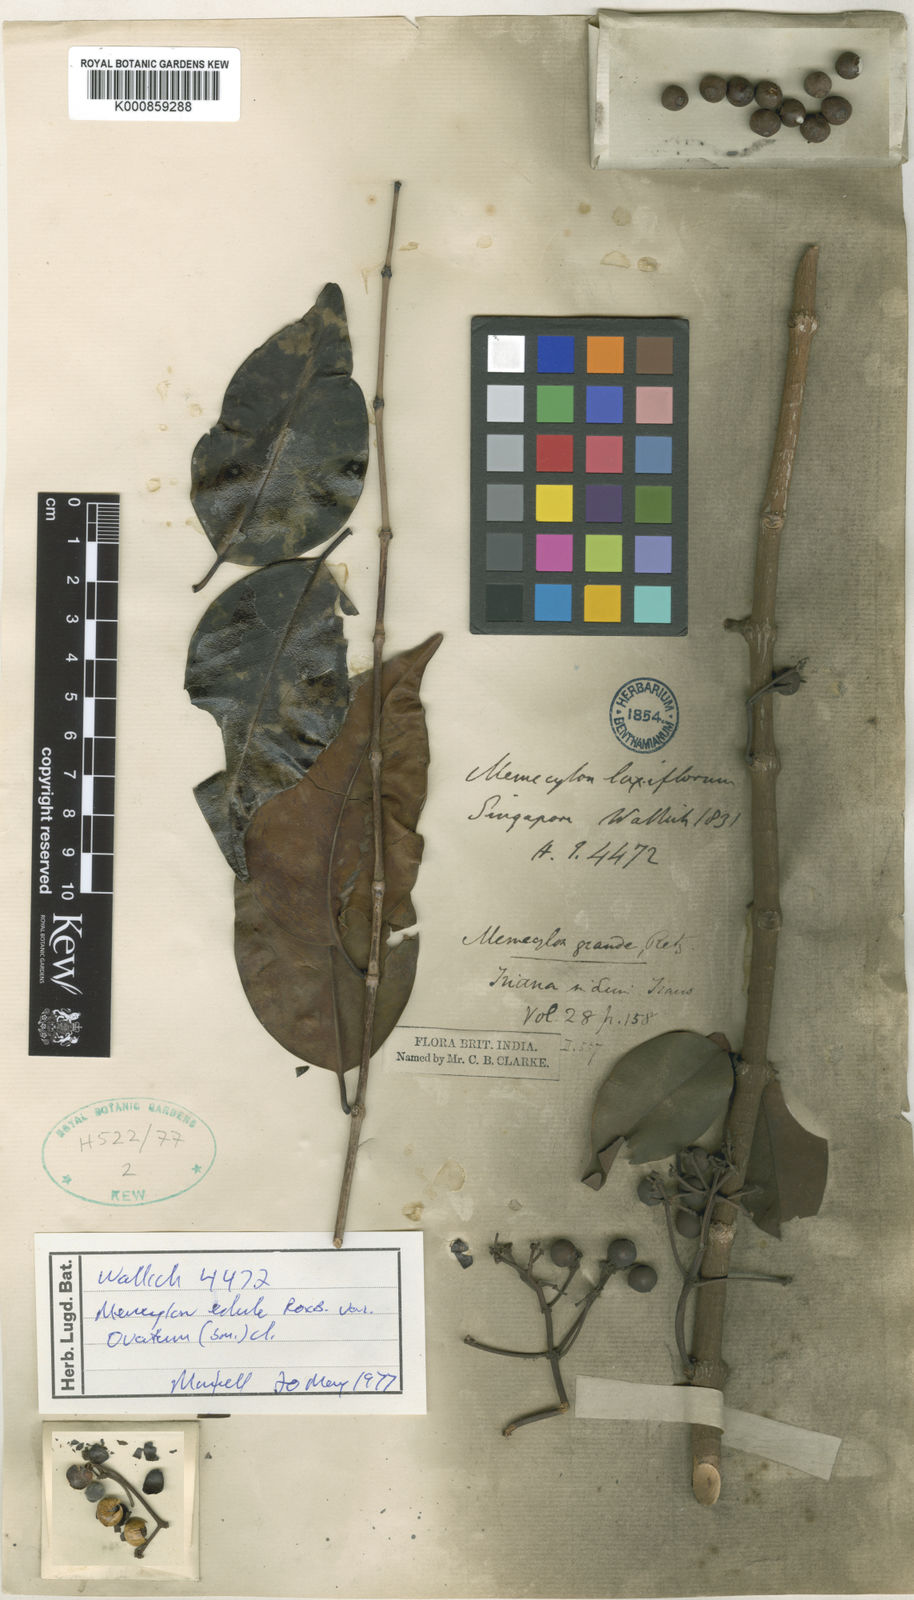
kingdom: Plantae
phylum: Tracheophyta
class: Magnoliopsida
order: Myrtales
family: Melastomataceae
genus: Memecylon
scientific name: Memecylon edule
